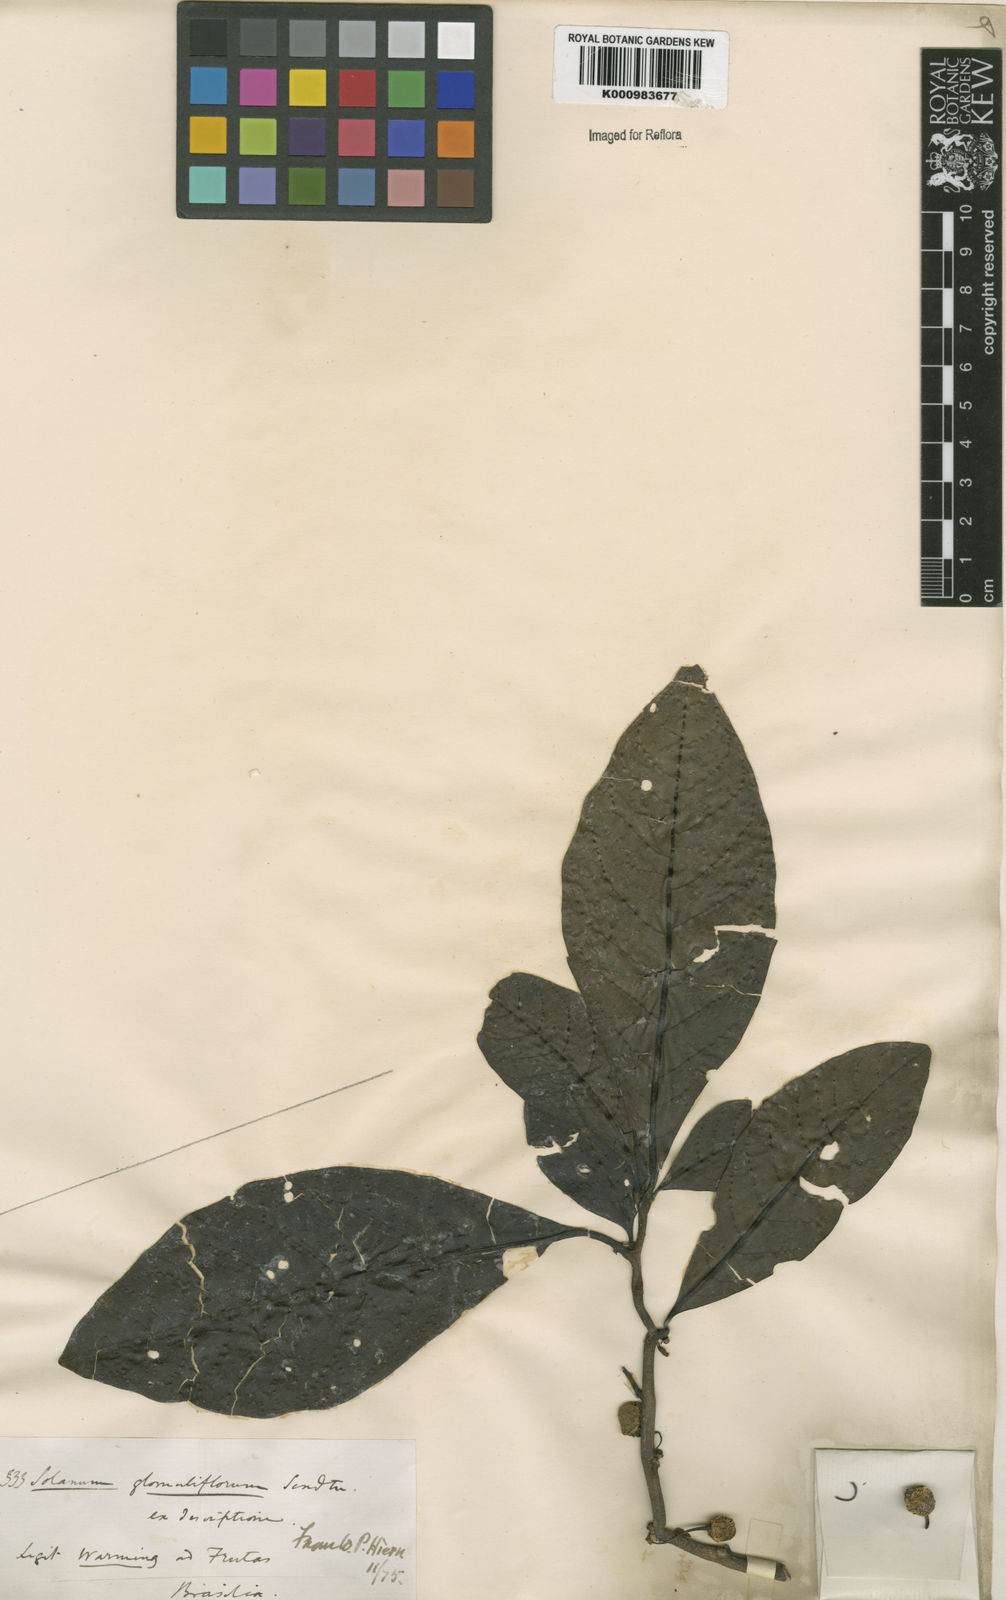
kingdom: Plantae
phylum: Tracheophyta
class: Magnoliopsida
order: Solanales
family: Solanaceae
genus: Solanum
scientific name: Solanum glomuliflorum
